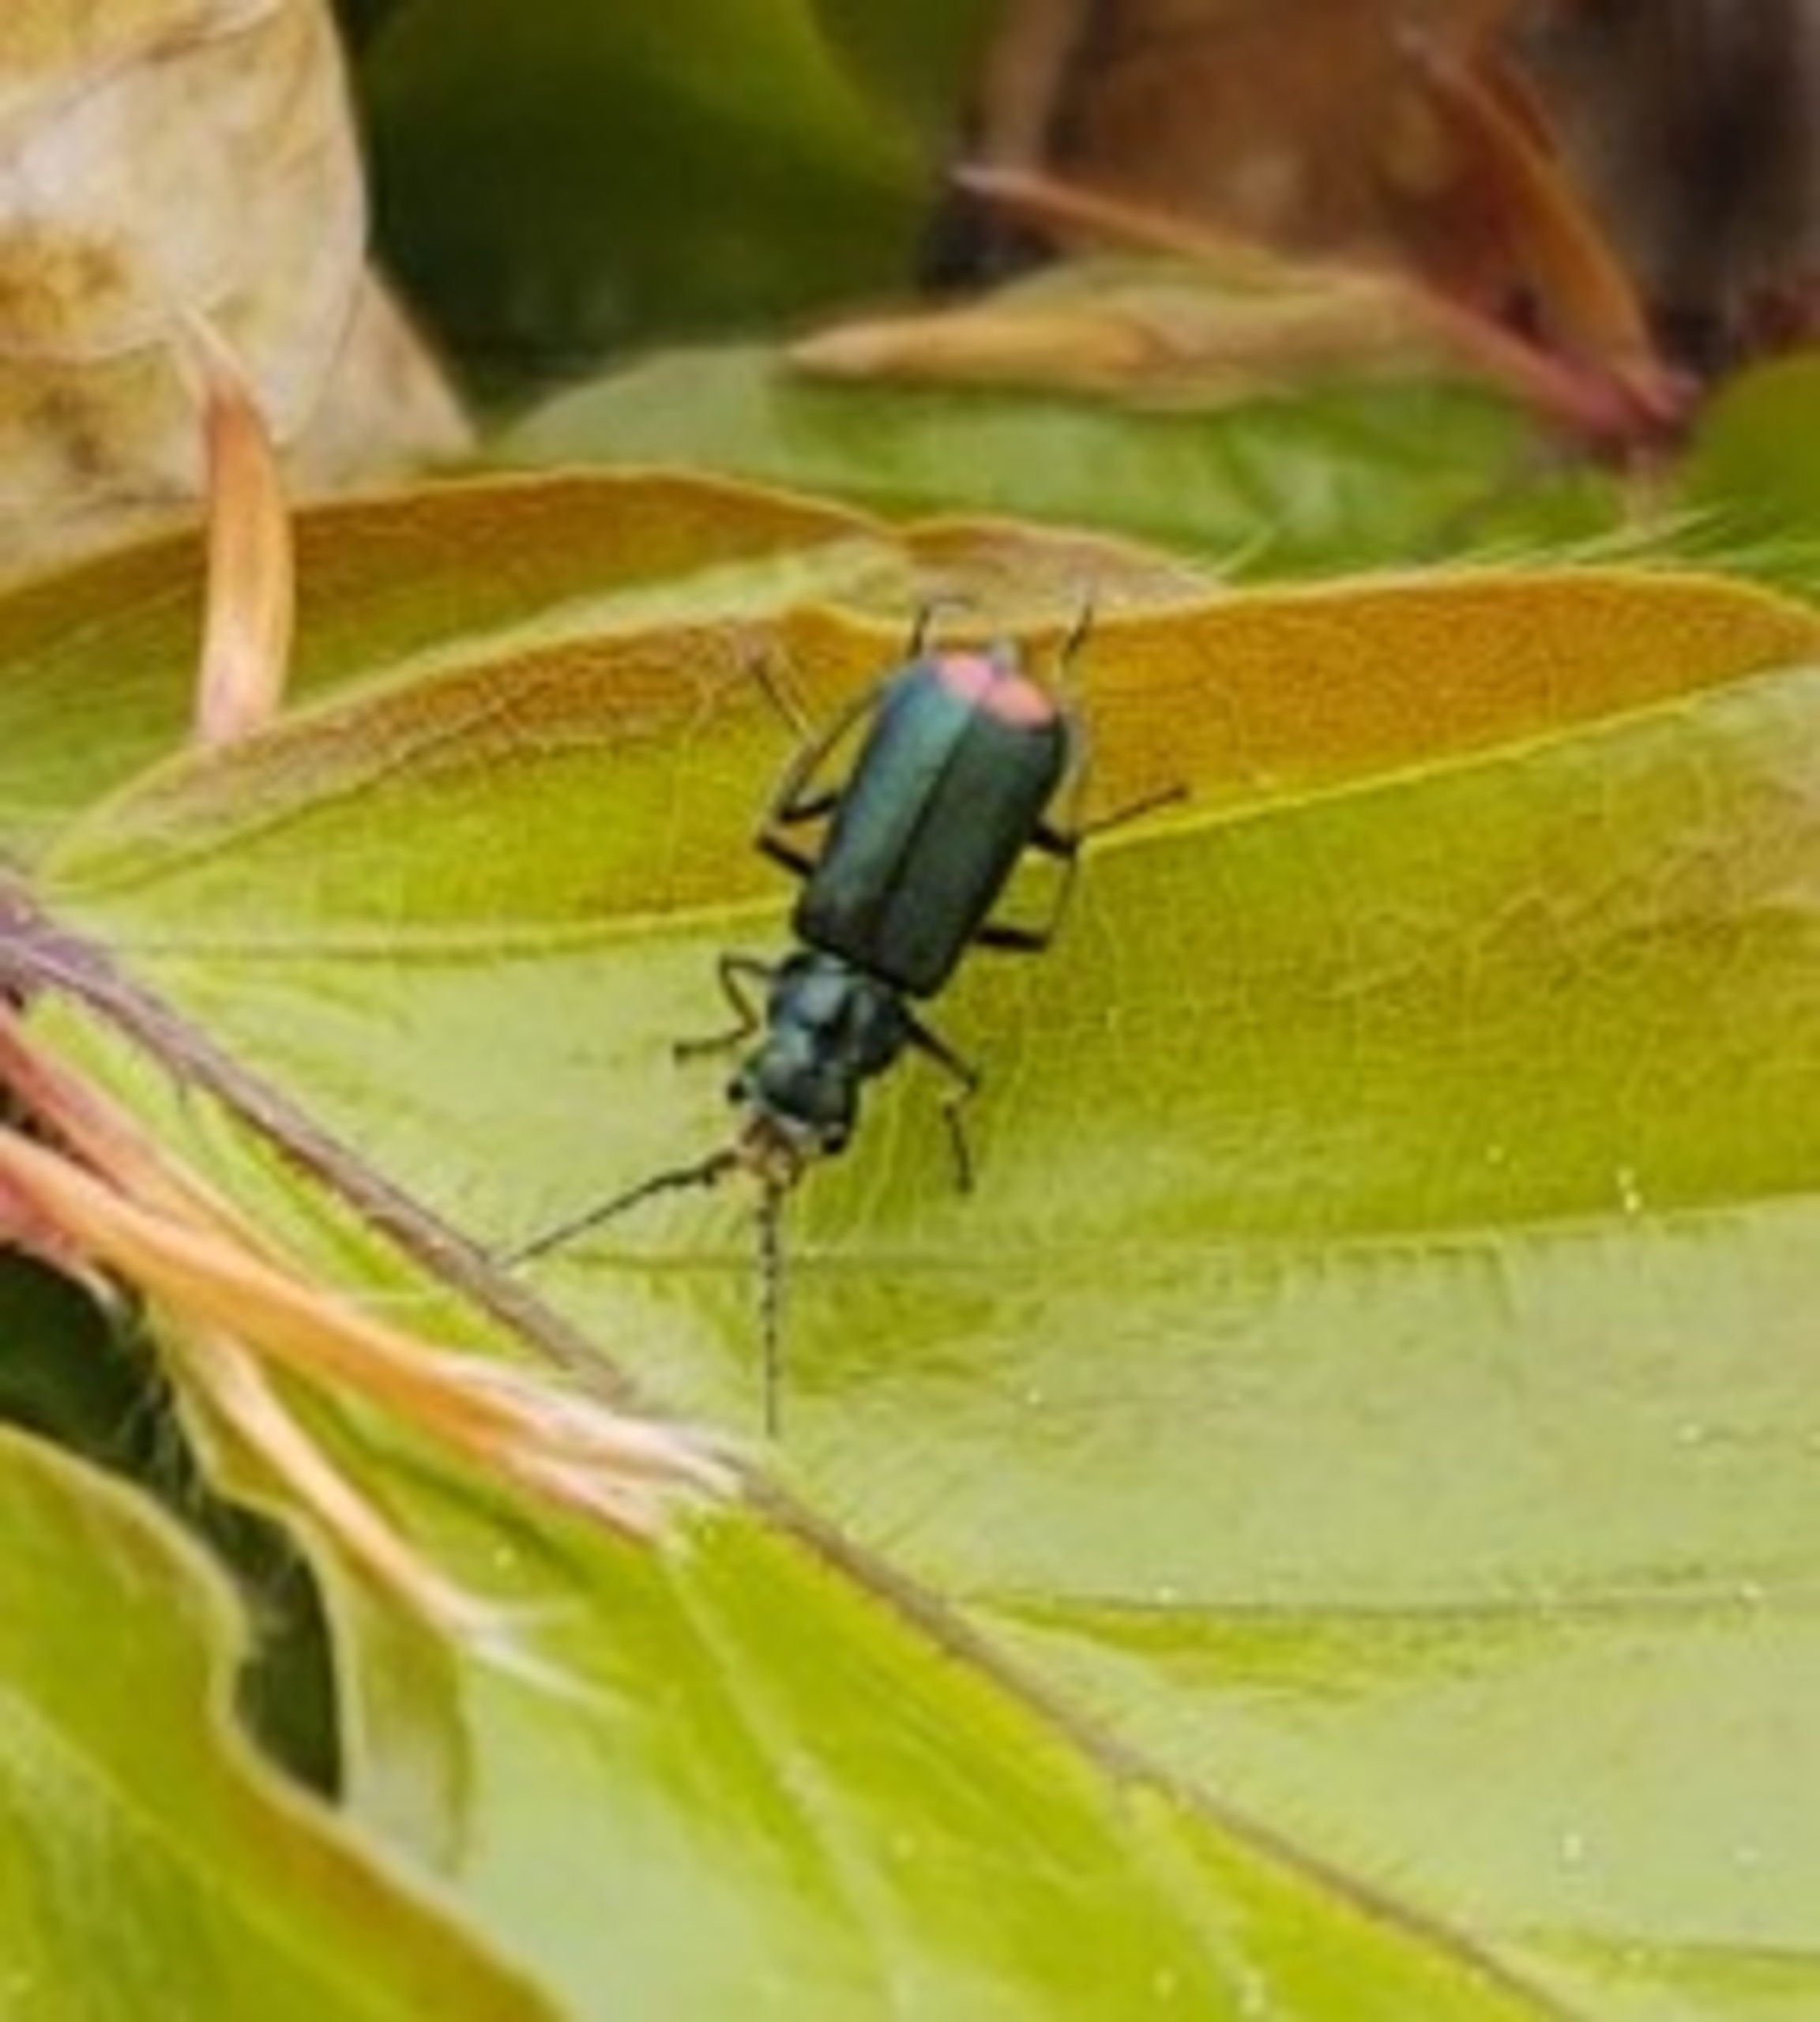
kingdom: Animalia
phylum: Arthropoda
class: Insecta
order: Coleoptera
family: Melyridae
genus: Malachius
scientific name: Malachius bipustulatus
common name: Skovmalakitbille
